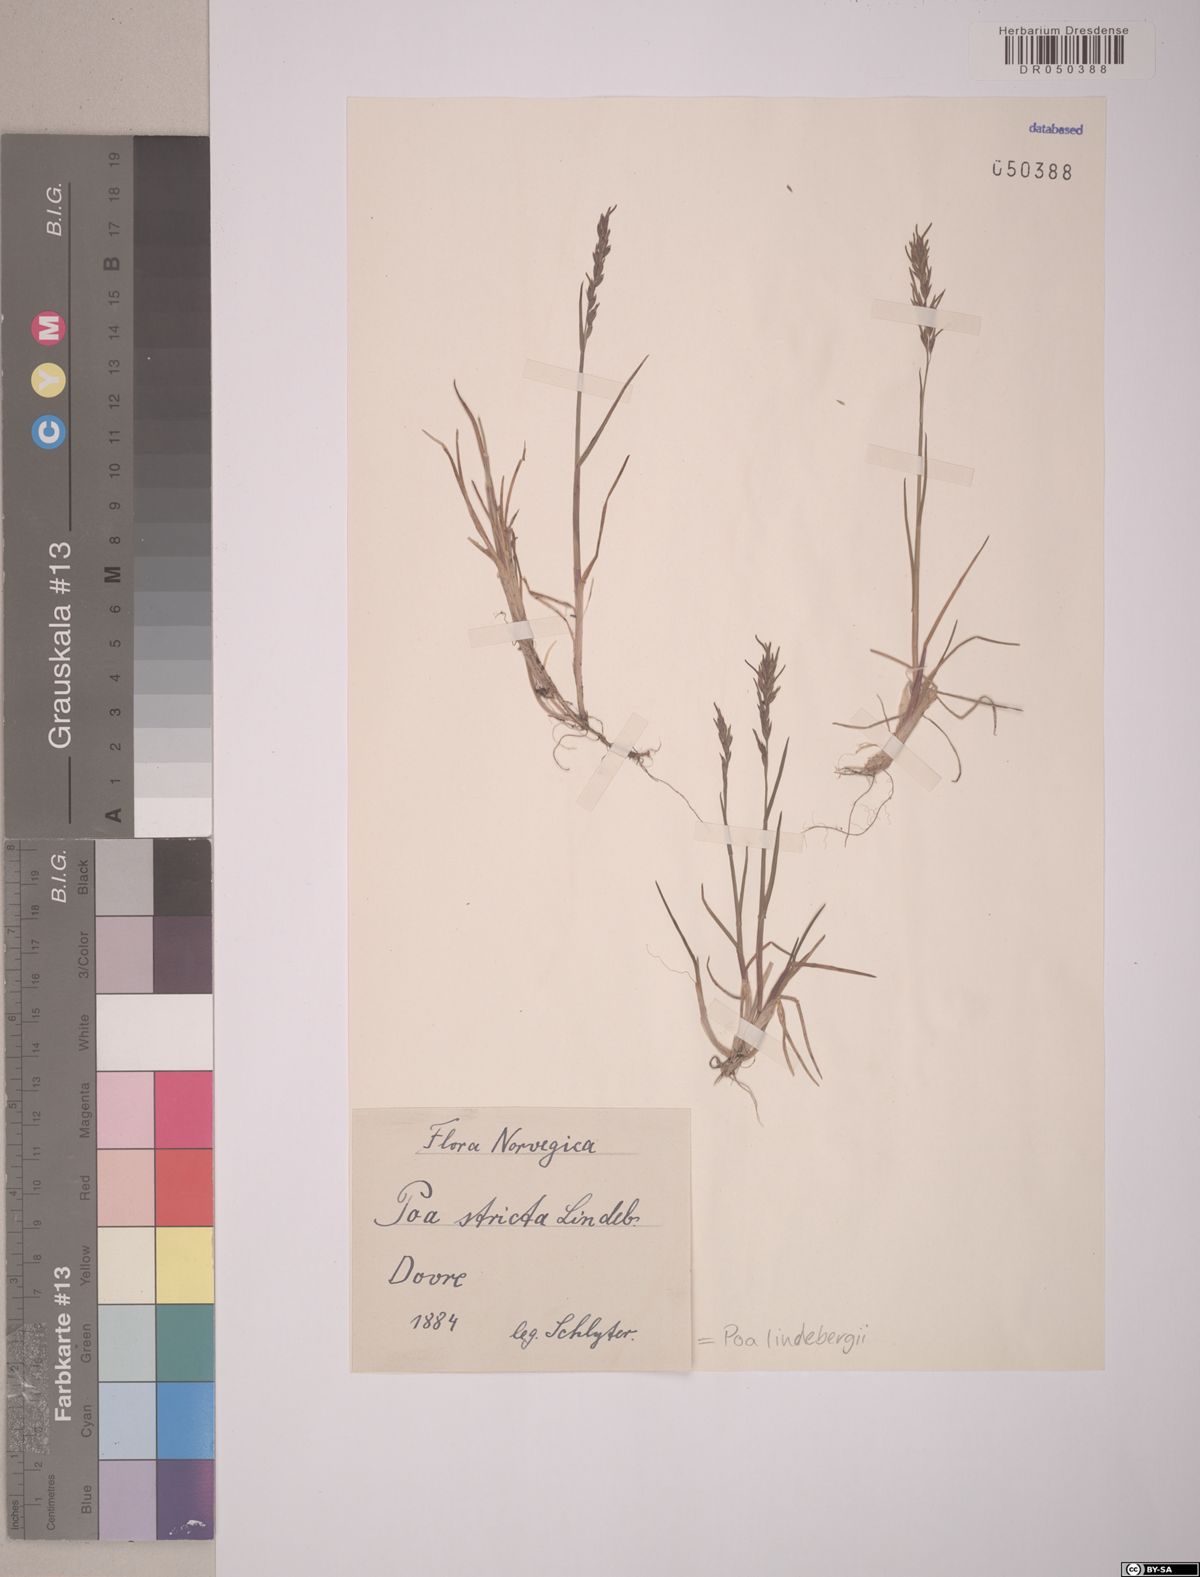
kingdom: Plantae
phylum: Tracheophyta
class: Liliopsida
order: Poales
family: Poaceae
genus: Poa
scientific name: Poa lindebergii
